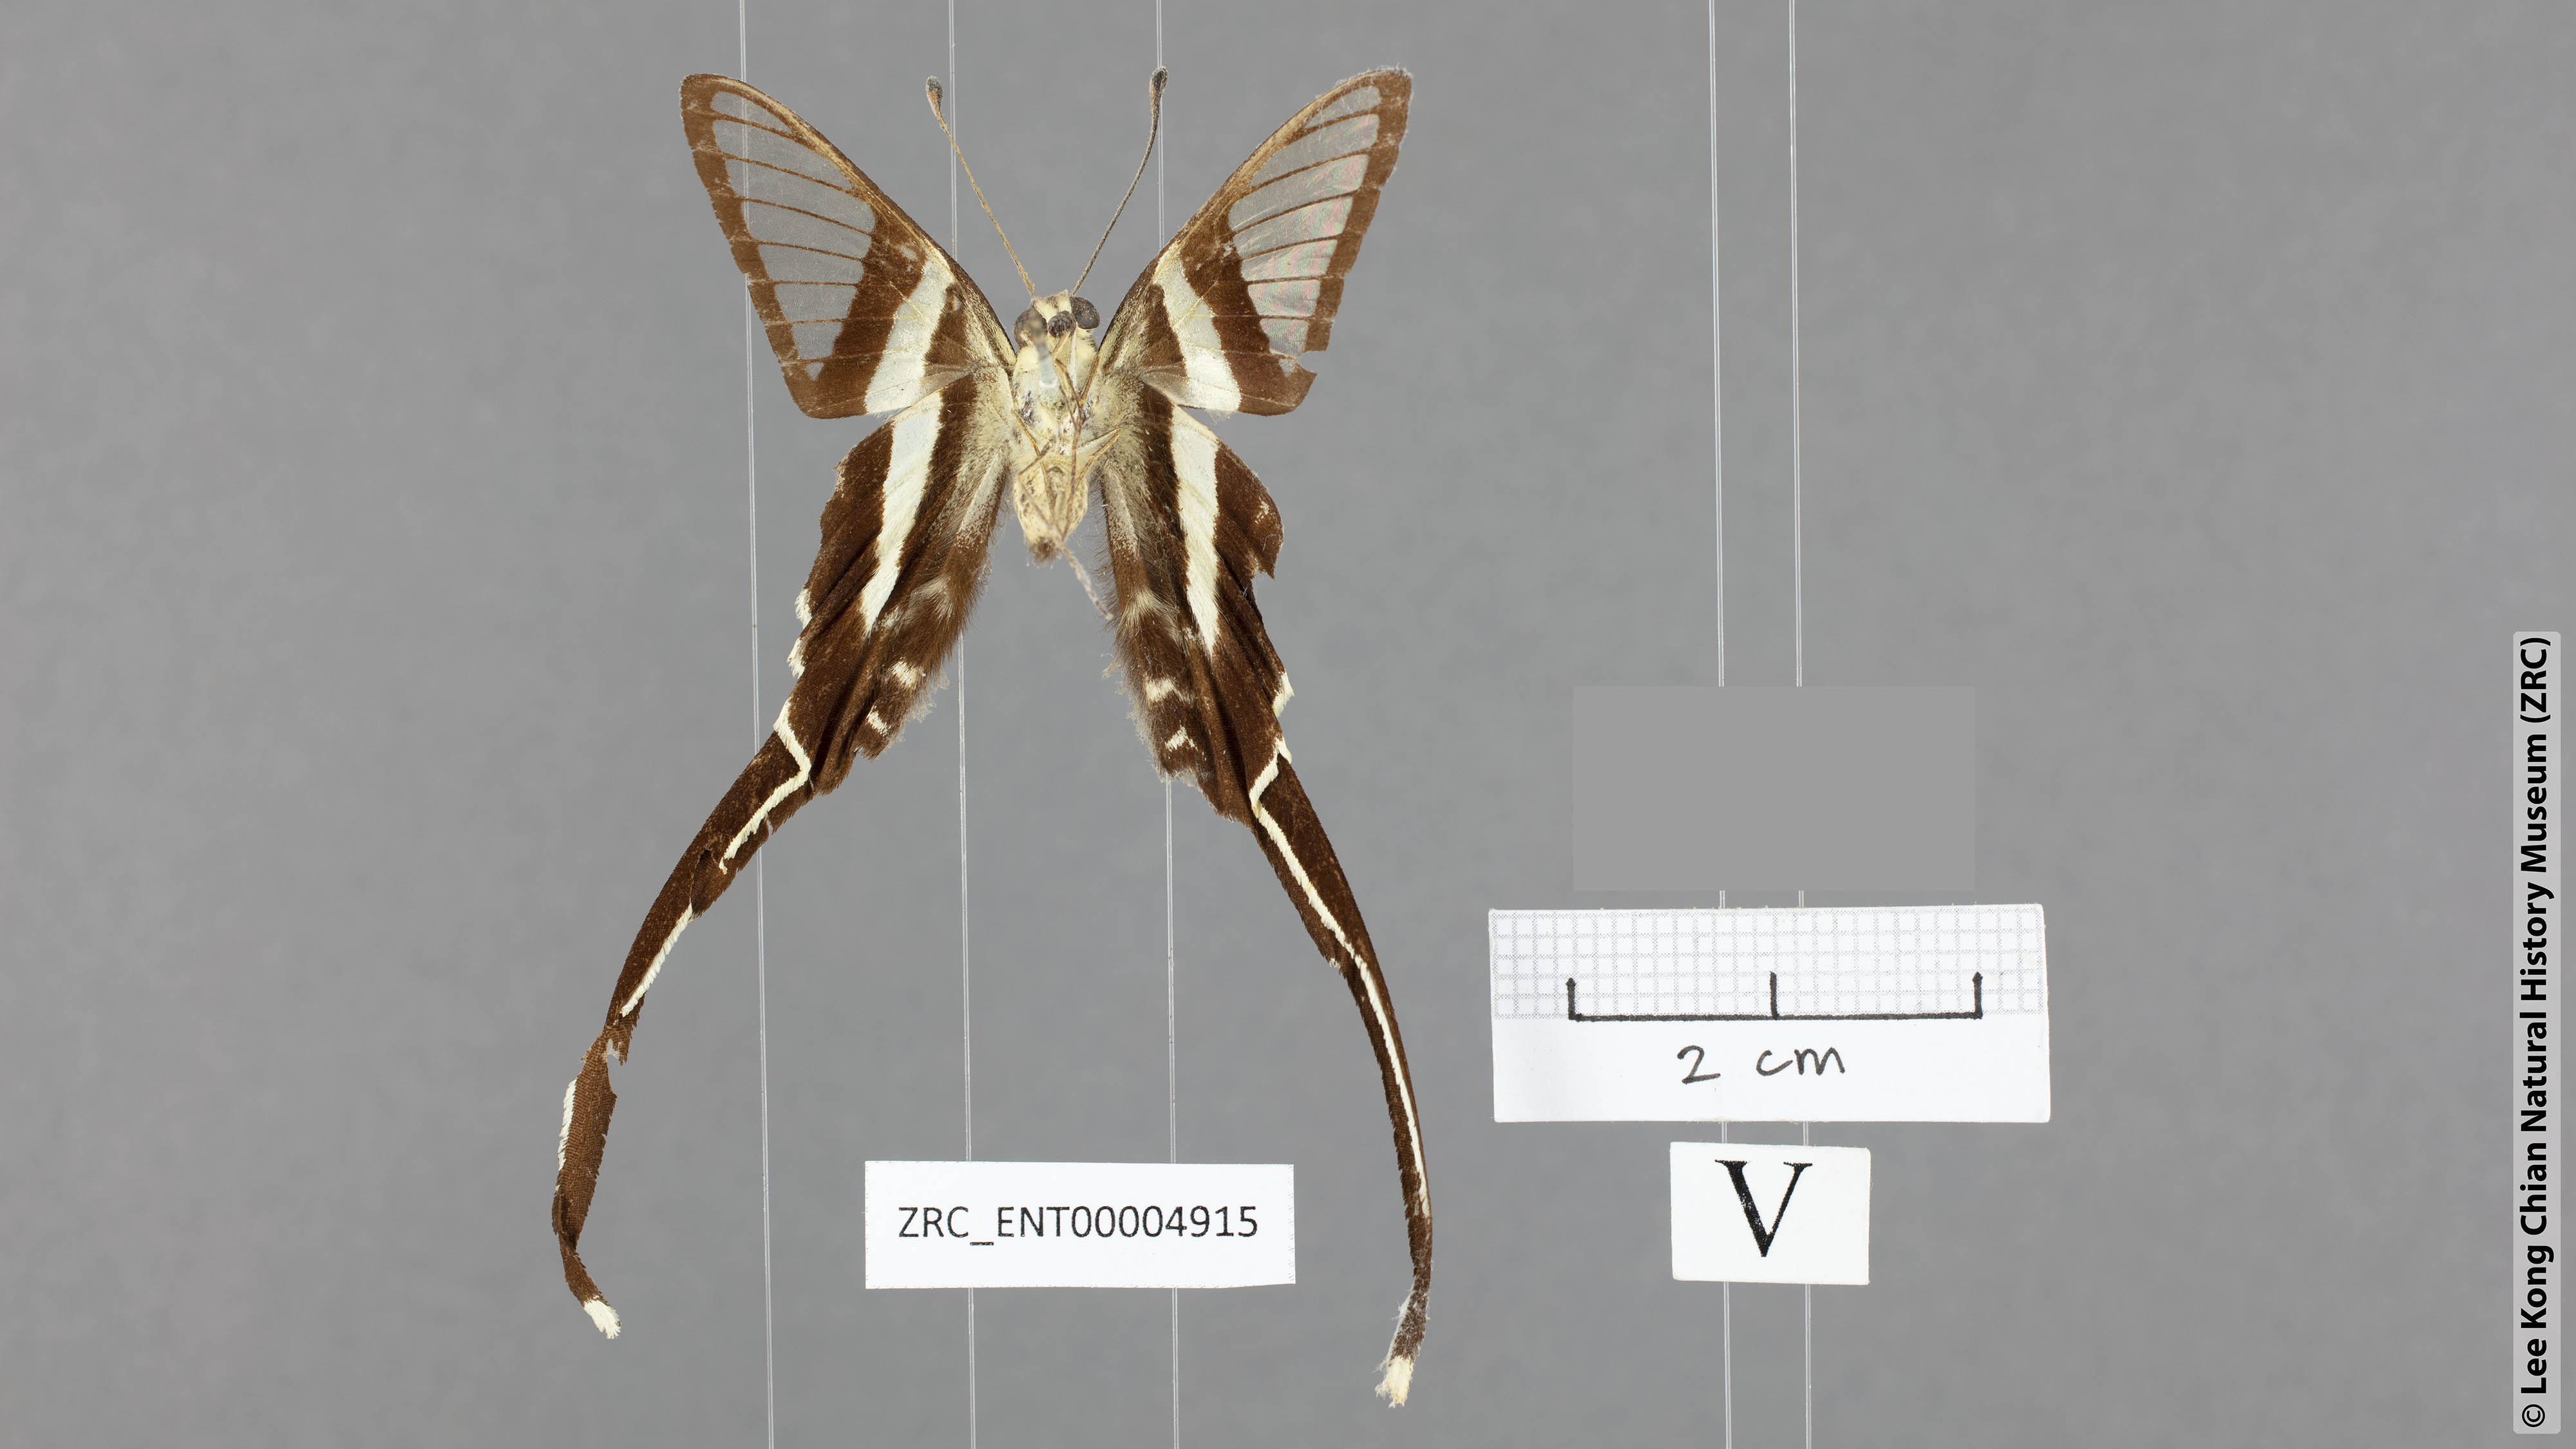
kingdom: Animalia
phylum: Arthropoda
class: Insecta
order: Lepidoptera
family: Papilionidae
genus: Lamproptera
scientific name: Lamproptera meges
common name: Green dragontail
